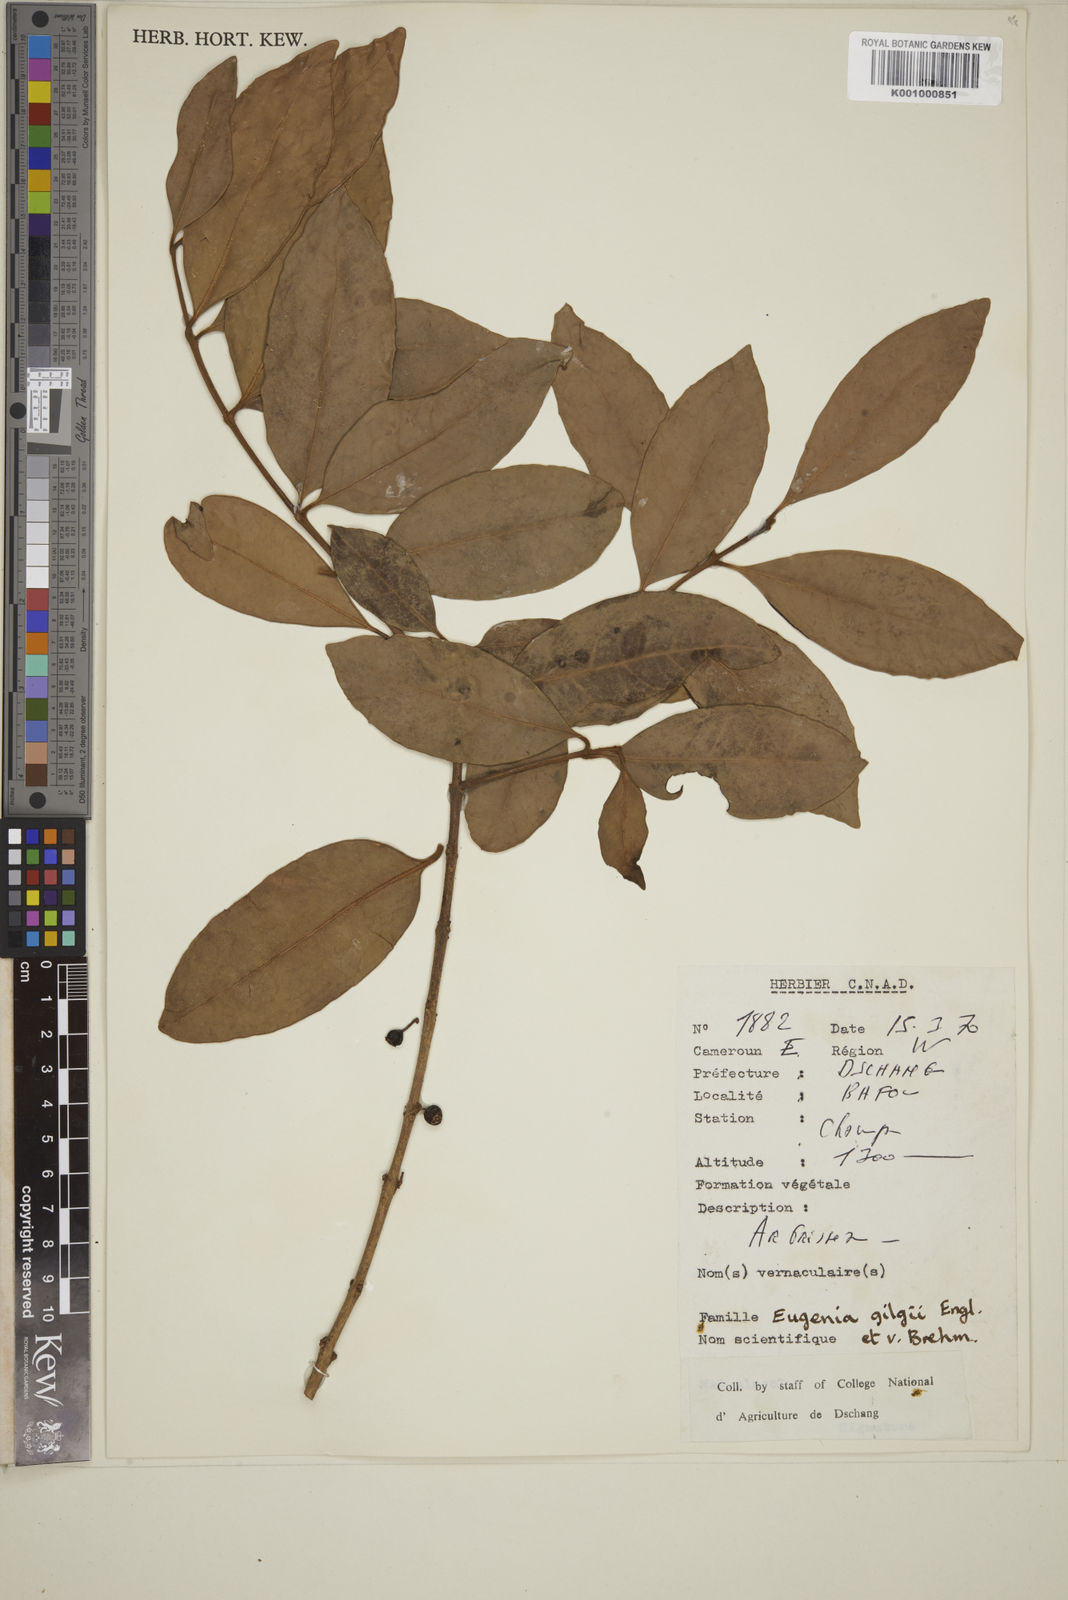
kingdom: Plantae
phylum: Tracheophyta
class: Magnoliopsida
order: Myrtales
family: Myrtaceae
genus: Eugenia
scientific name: Eugenia gilgii
